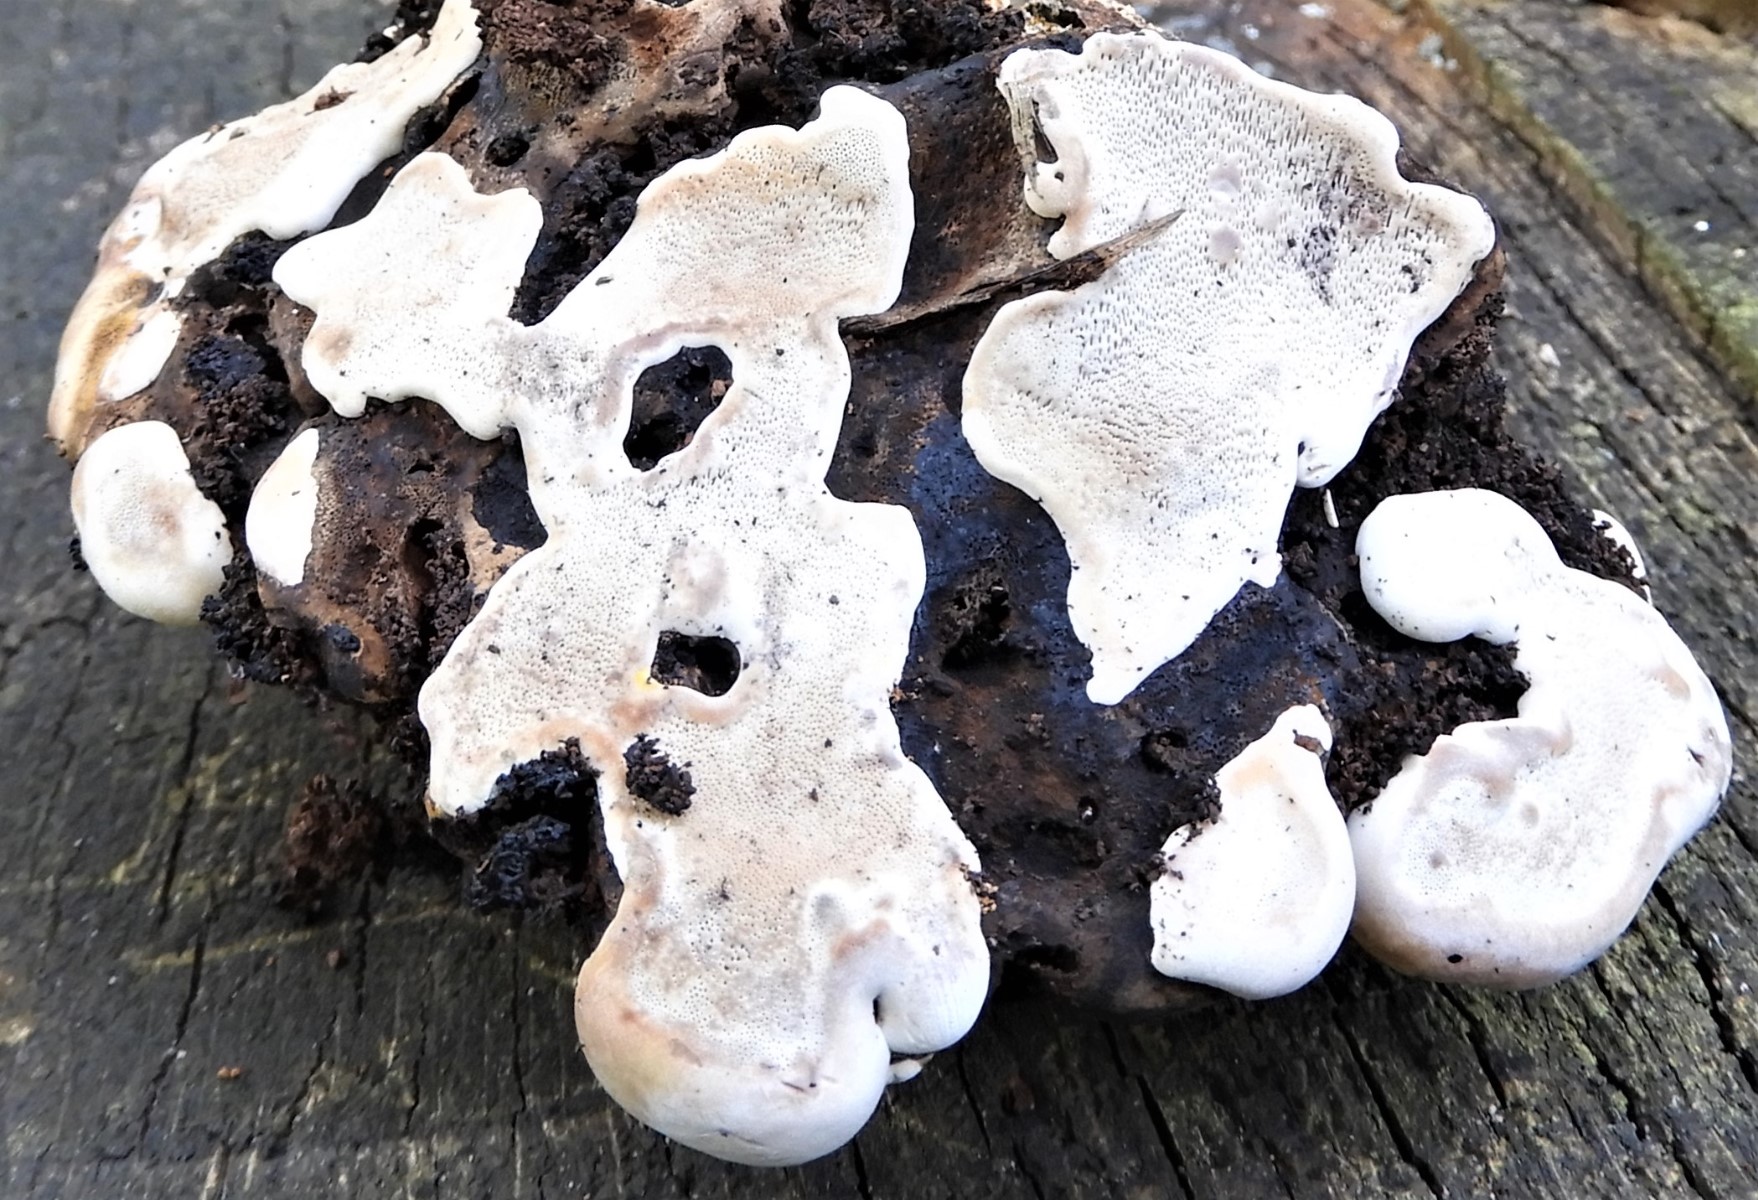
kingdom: Fungi
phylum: Basidiomycota
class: Agaricomycetes
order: Polyporales
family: Polyporaceae
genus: Ganoderma
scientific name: Ganoderma applanatum
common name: flad lakporesvamp
